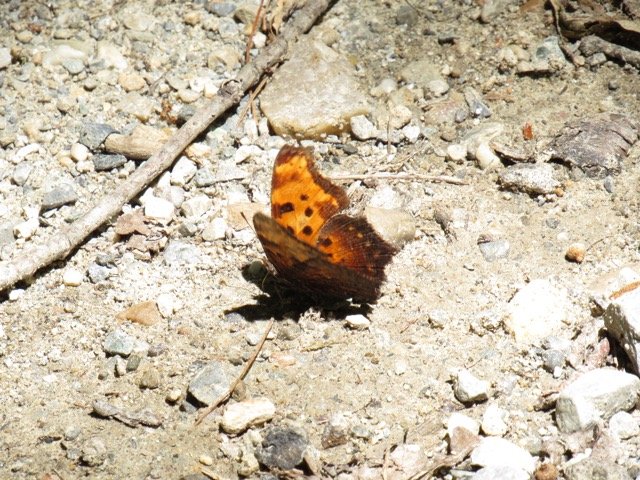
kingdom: Animalia
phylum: Arthropoda
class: Insecta
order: Lepidoptera
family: Nymphalidae
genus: Polygonia
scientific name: Polygonia comma
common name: Eastern Comma
